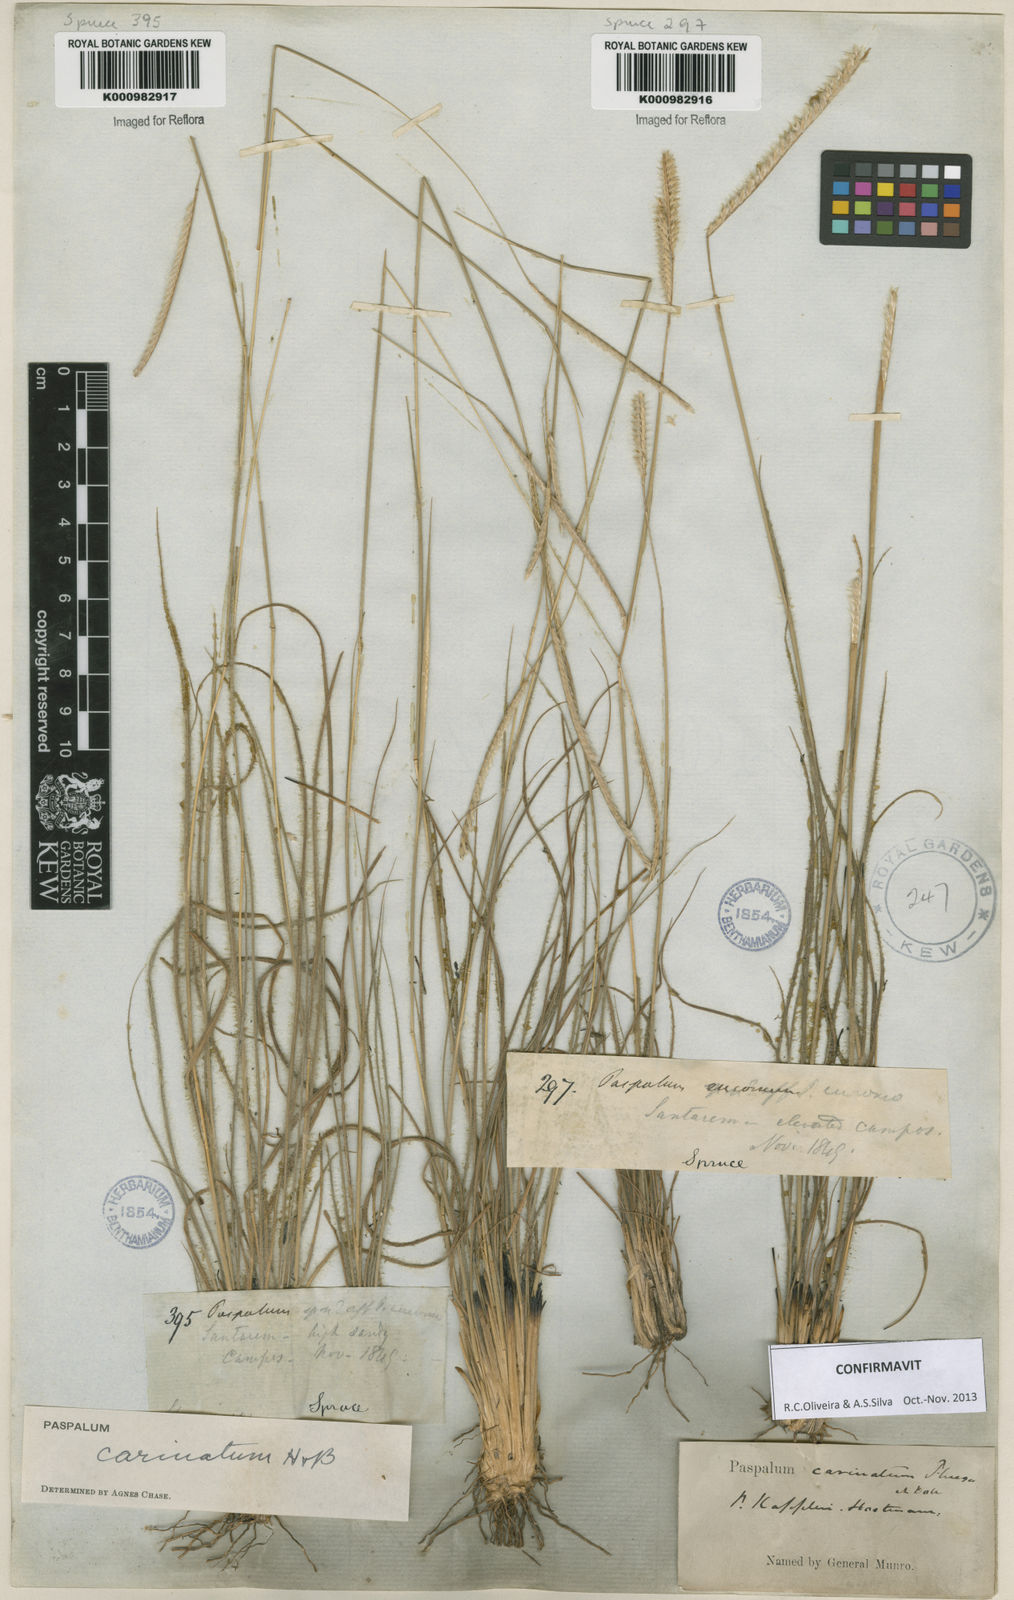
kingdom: Plantae
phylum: Tracheophyta
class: Liliopsida
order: Poales
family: Poaceae
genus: Paspalum
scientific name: Paspalum
